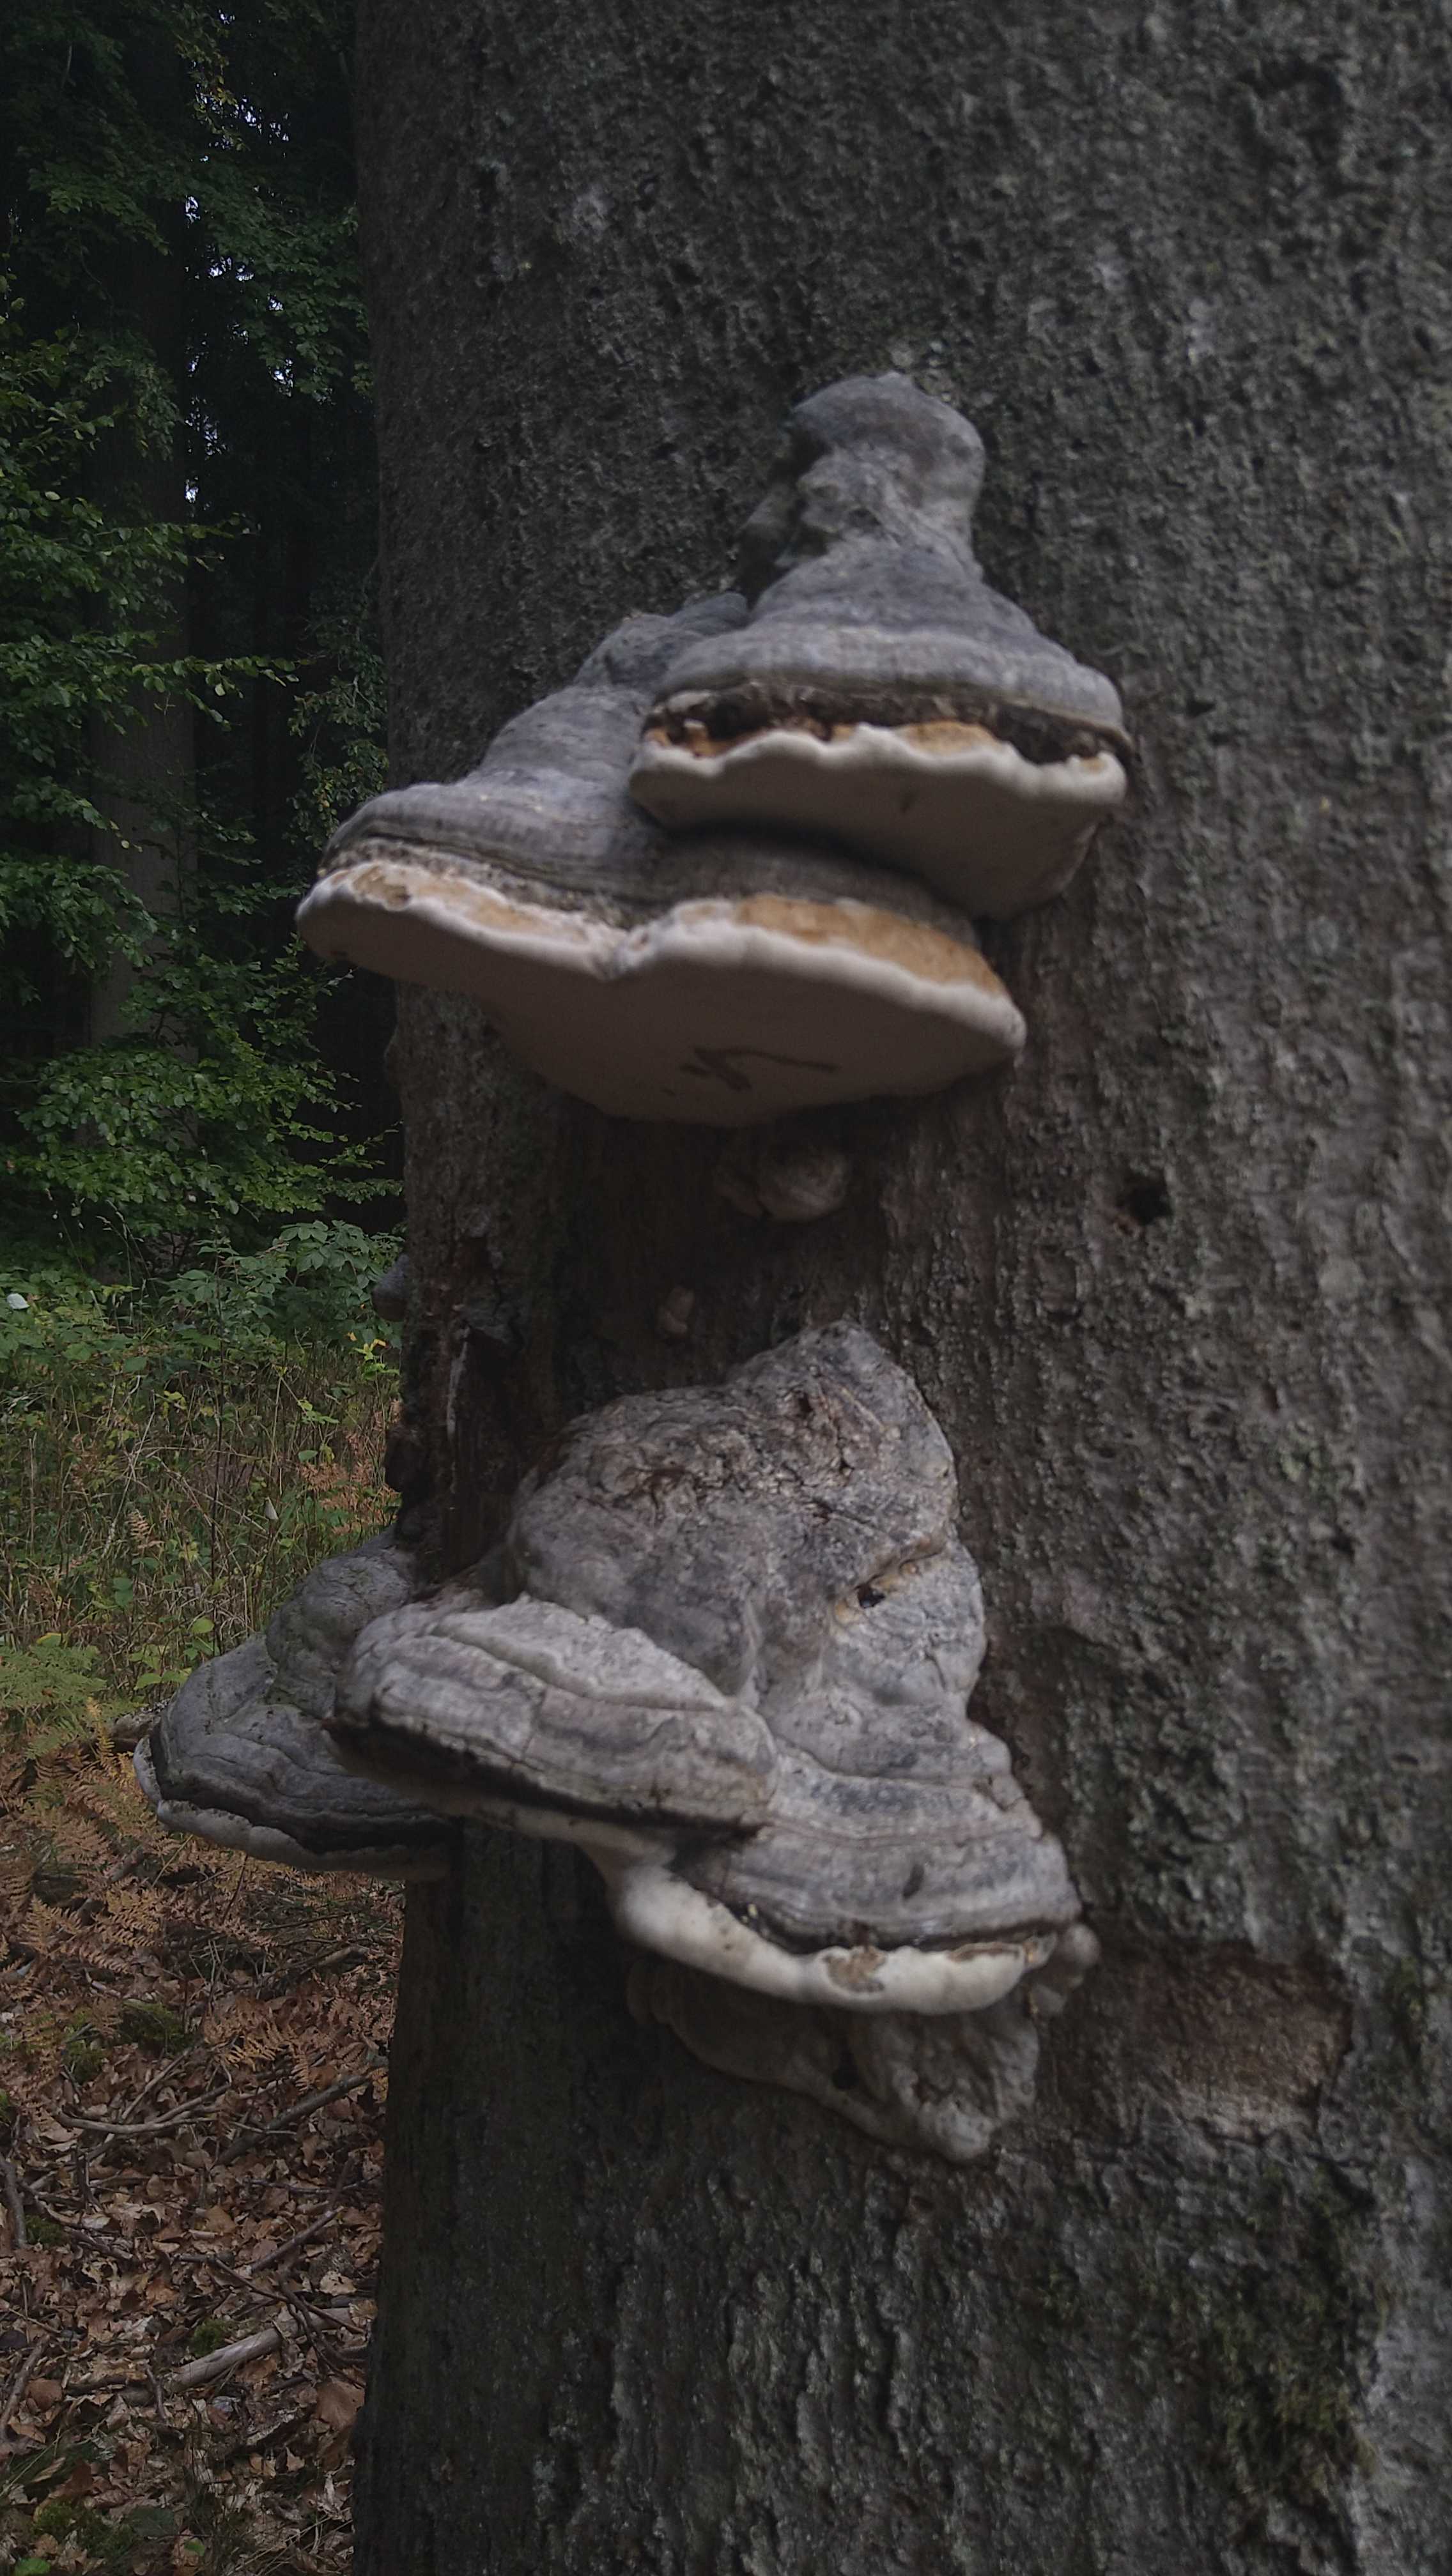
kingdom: Fungi
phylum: Basidiomycota
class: Agaricomycetes
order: Polyporales
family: Polyporaceae
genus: Fomes
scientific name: Fomes fomentarius
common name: tøndersvamp
